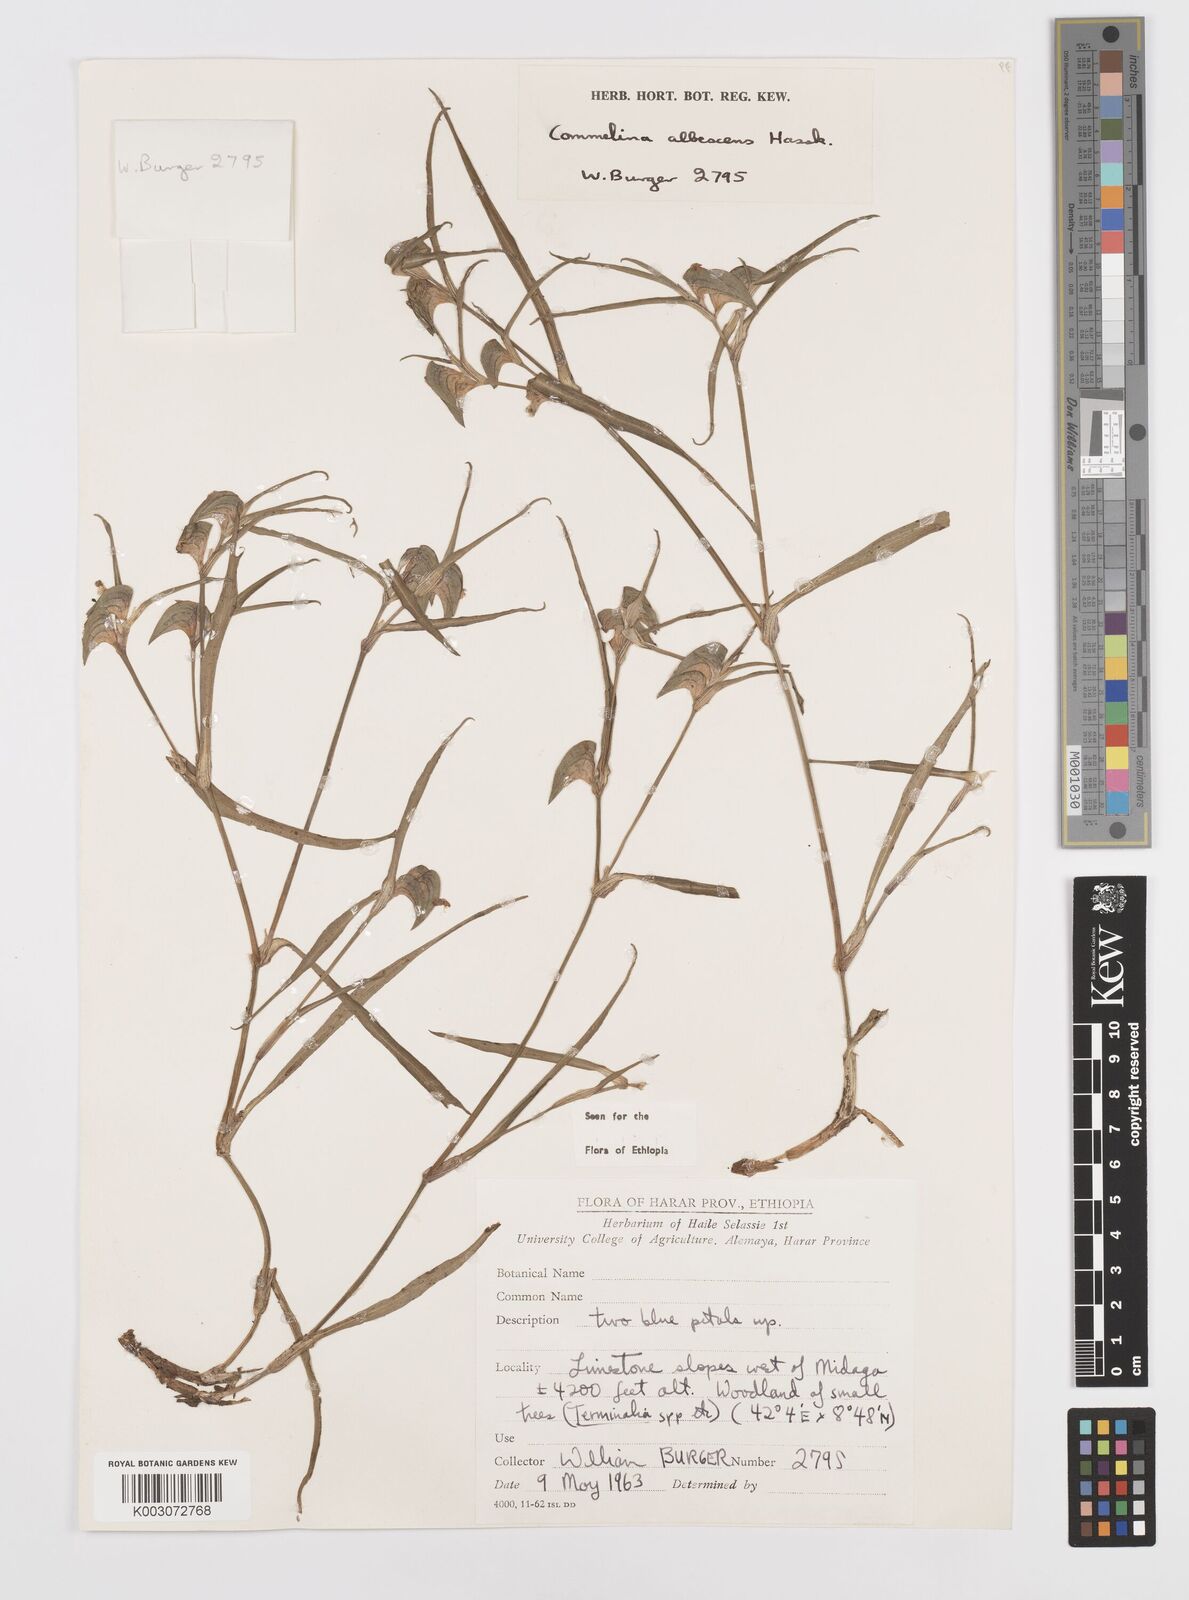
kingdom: Plantae
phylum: Tracheophyta
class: Liliopsida
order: Commelinales
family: Commelinaceae
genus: Commelina
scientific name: Commelina albescens
